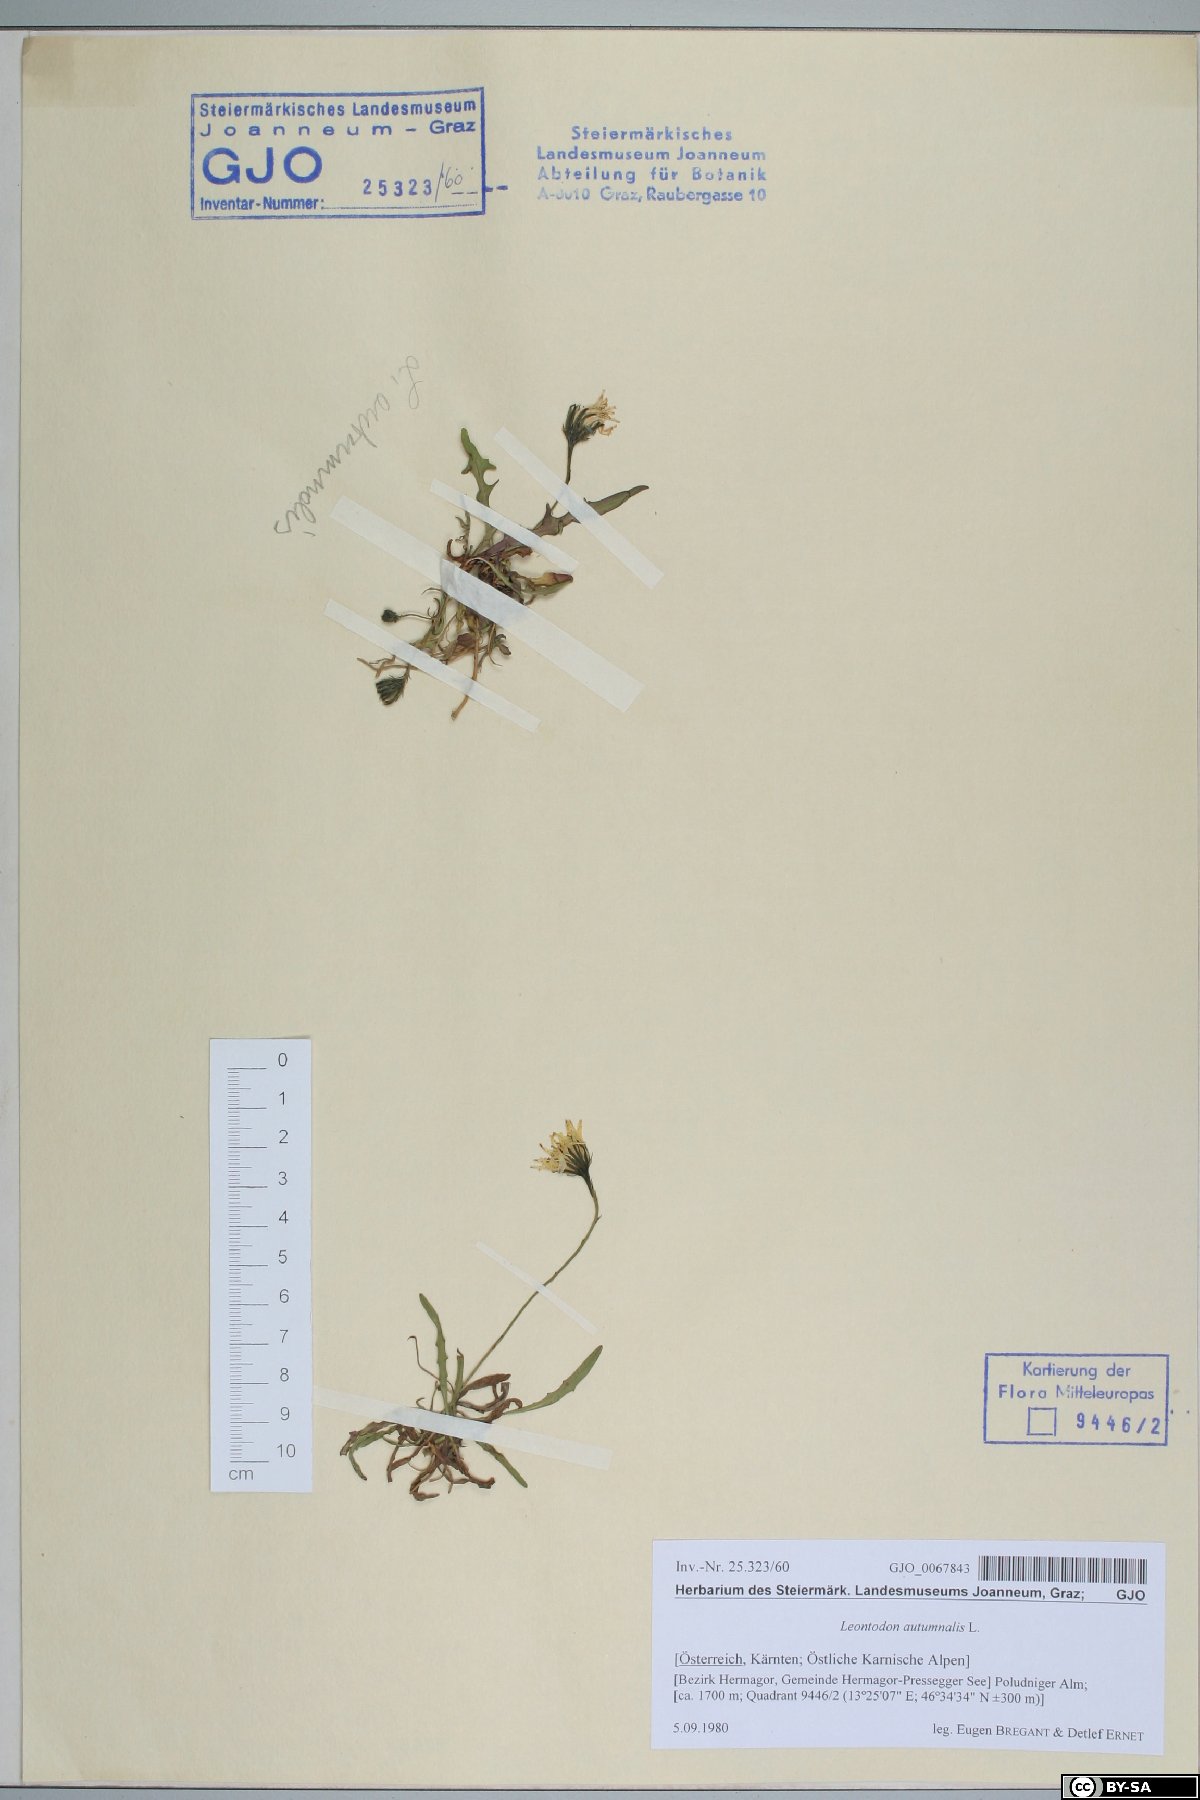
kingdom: Plantae
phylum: Tracheophyta
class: Magnoliopsida
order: Asterales
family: Asteraceae
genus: Scorzoneroides
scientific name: Scorzoneroides autumnalis
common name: Autumn hawkbit
